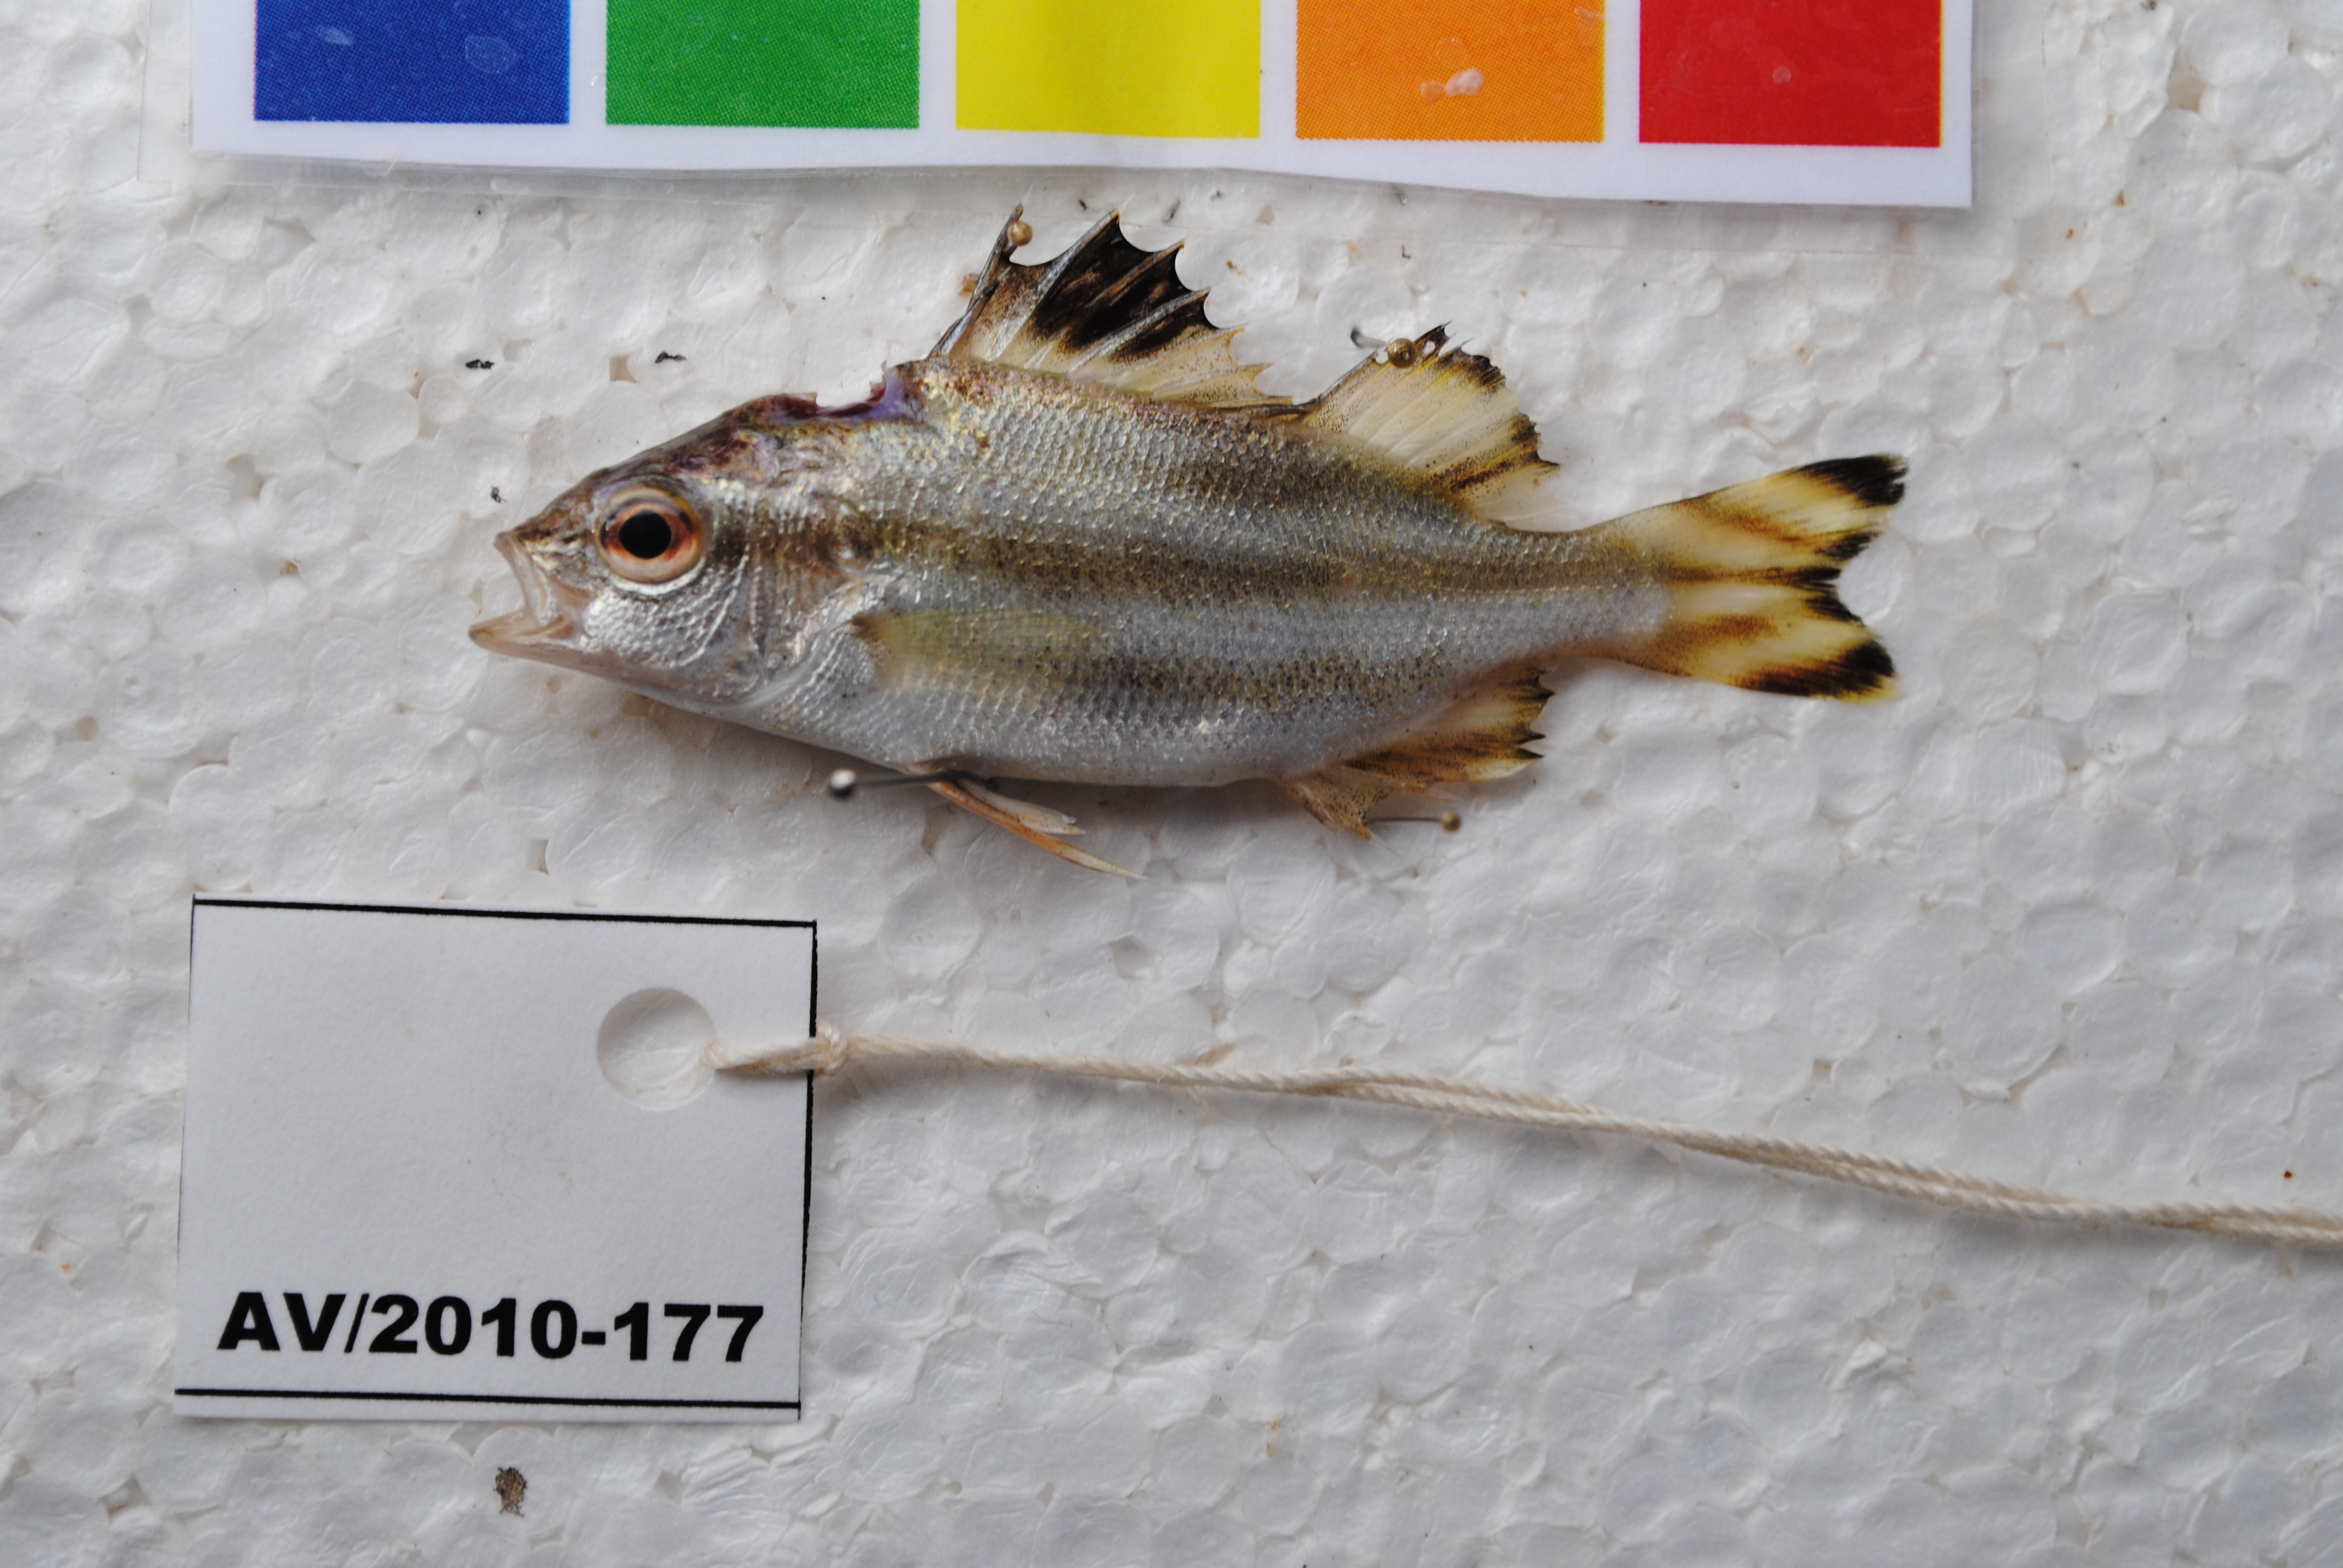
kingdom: Animalia
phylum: Chordata
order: Perciformes
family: Terapontidae
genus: Terapon
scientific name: Terapon theraps
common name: Largescaled therapon
